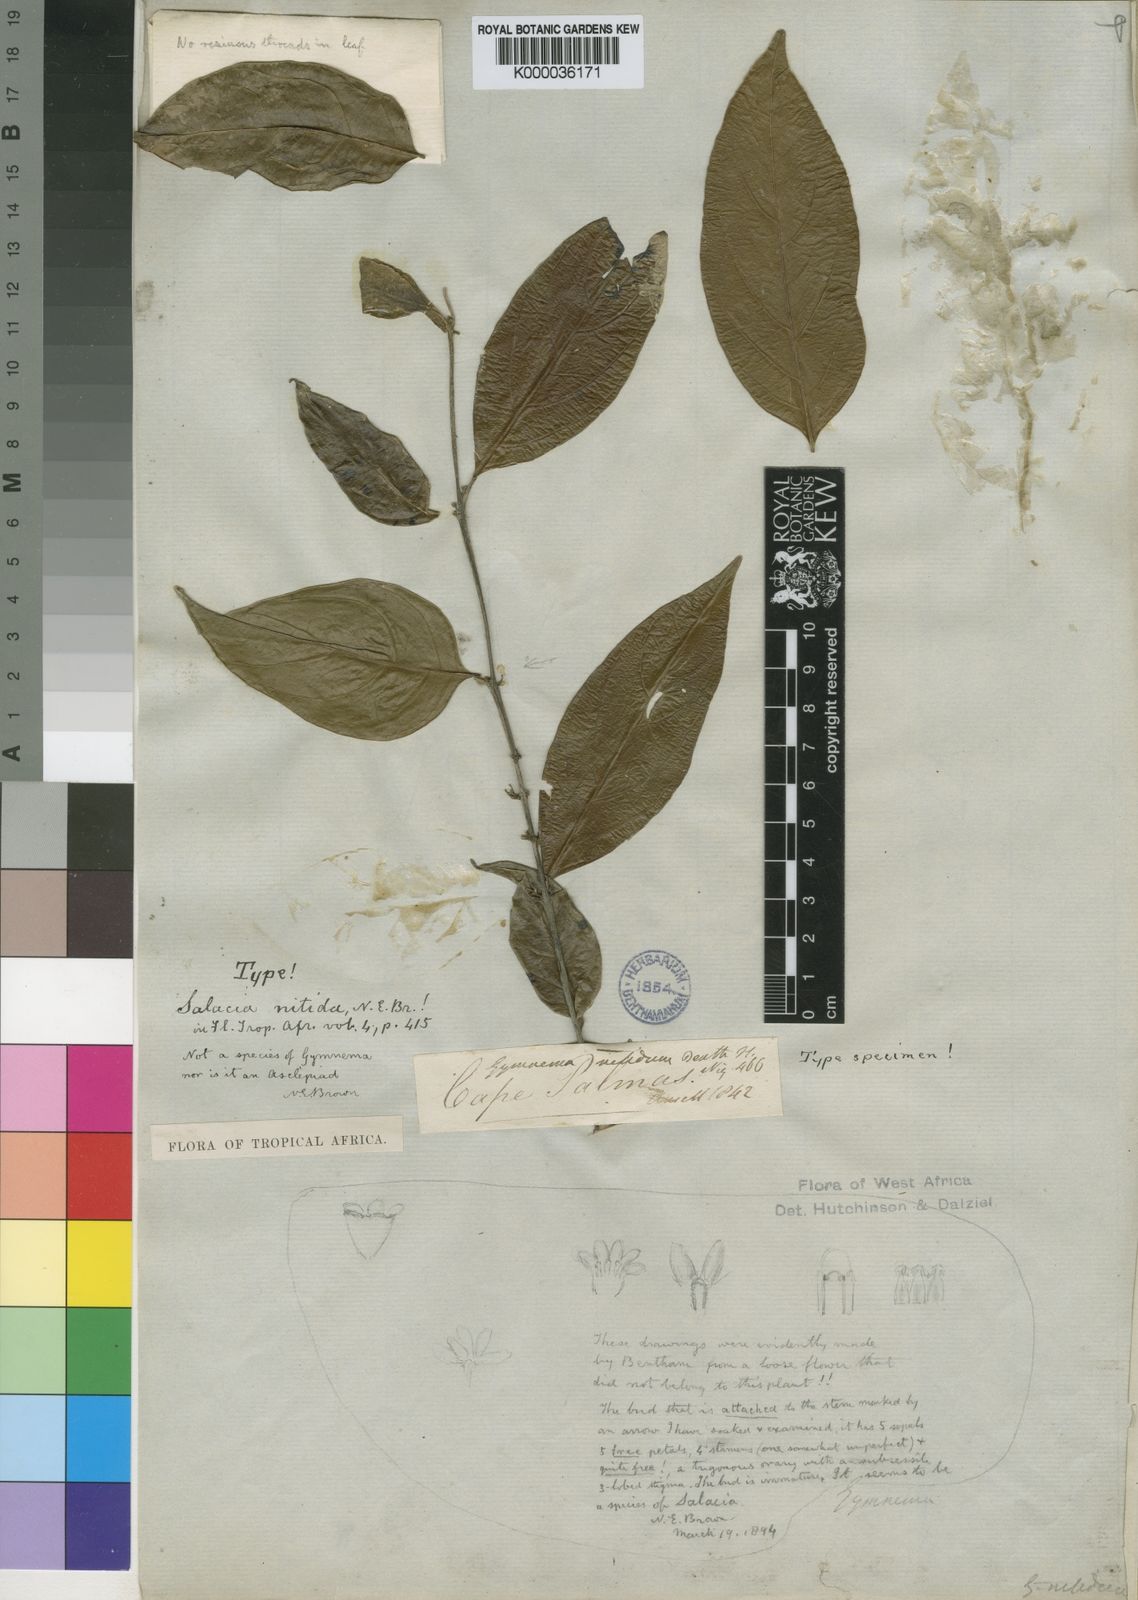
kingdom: Plantae
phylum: Tracheophyta
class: Magnoliopsida
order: Celastrales
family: Celastraceae
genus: Salacia
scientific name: Salacia nitida
